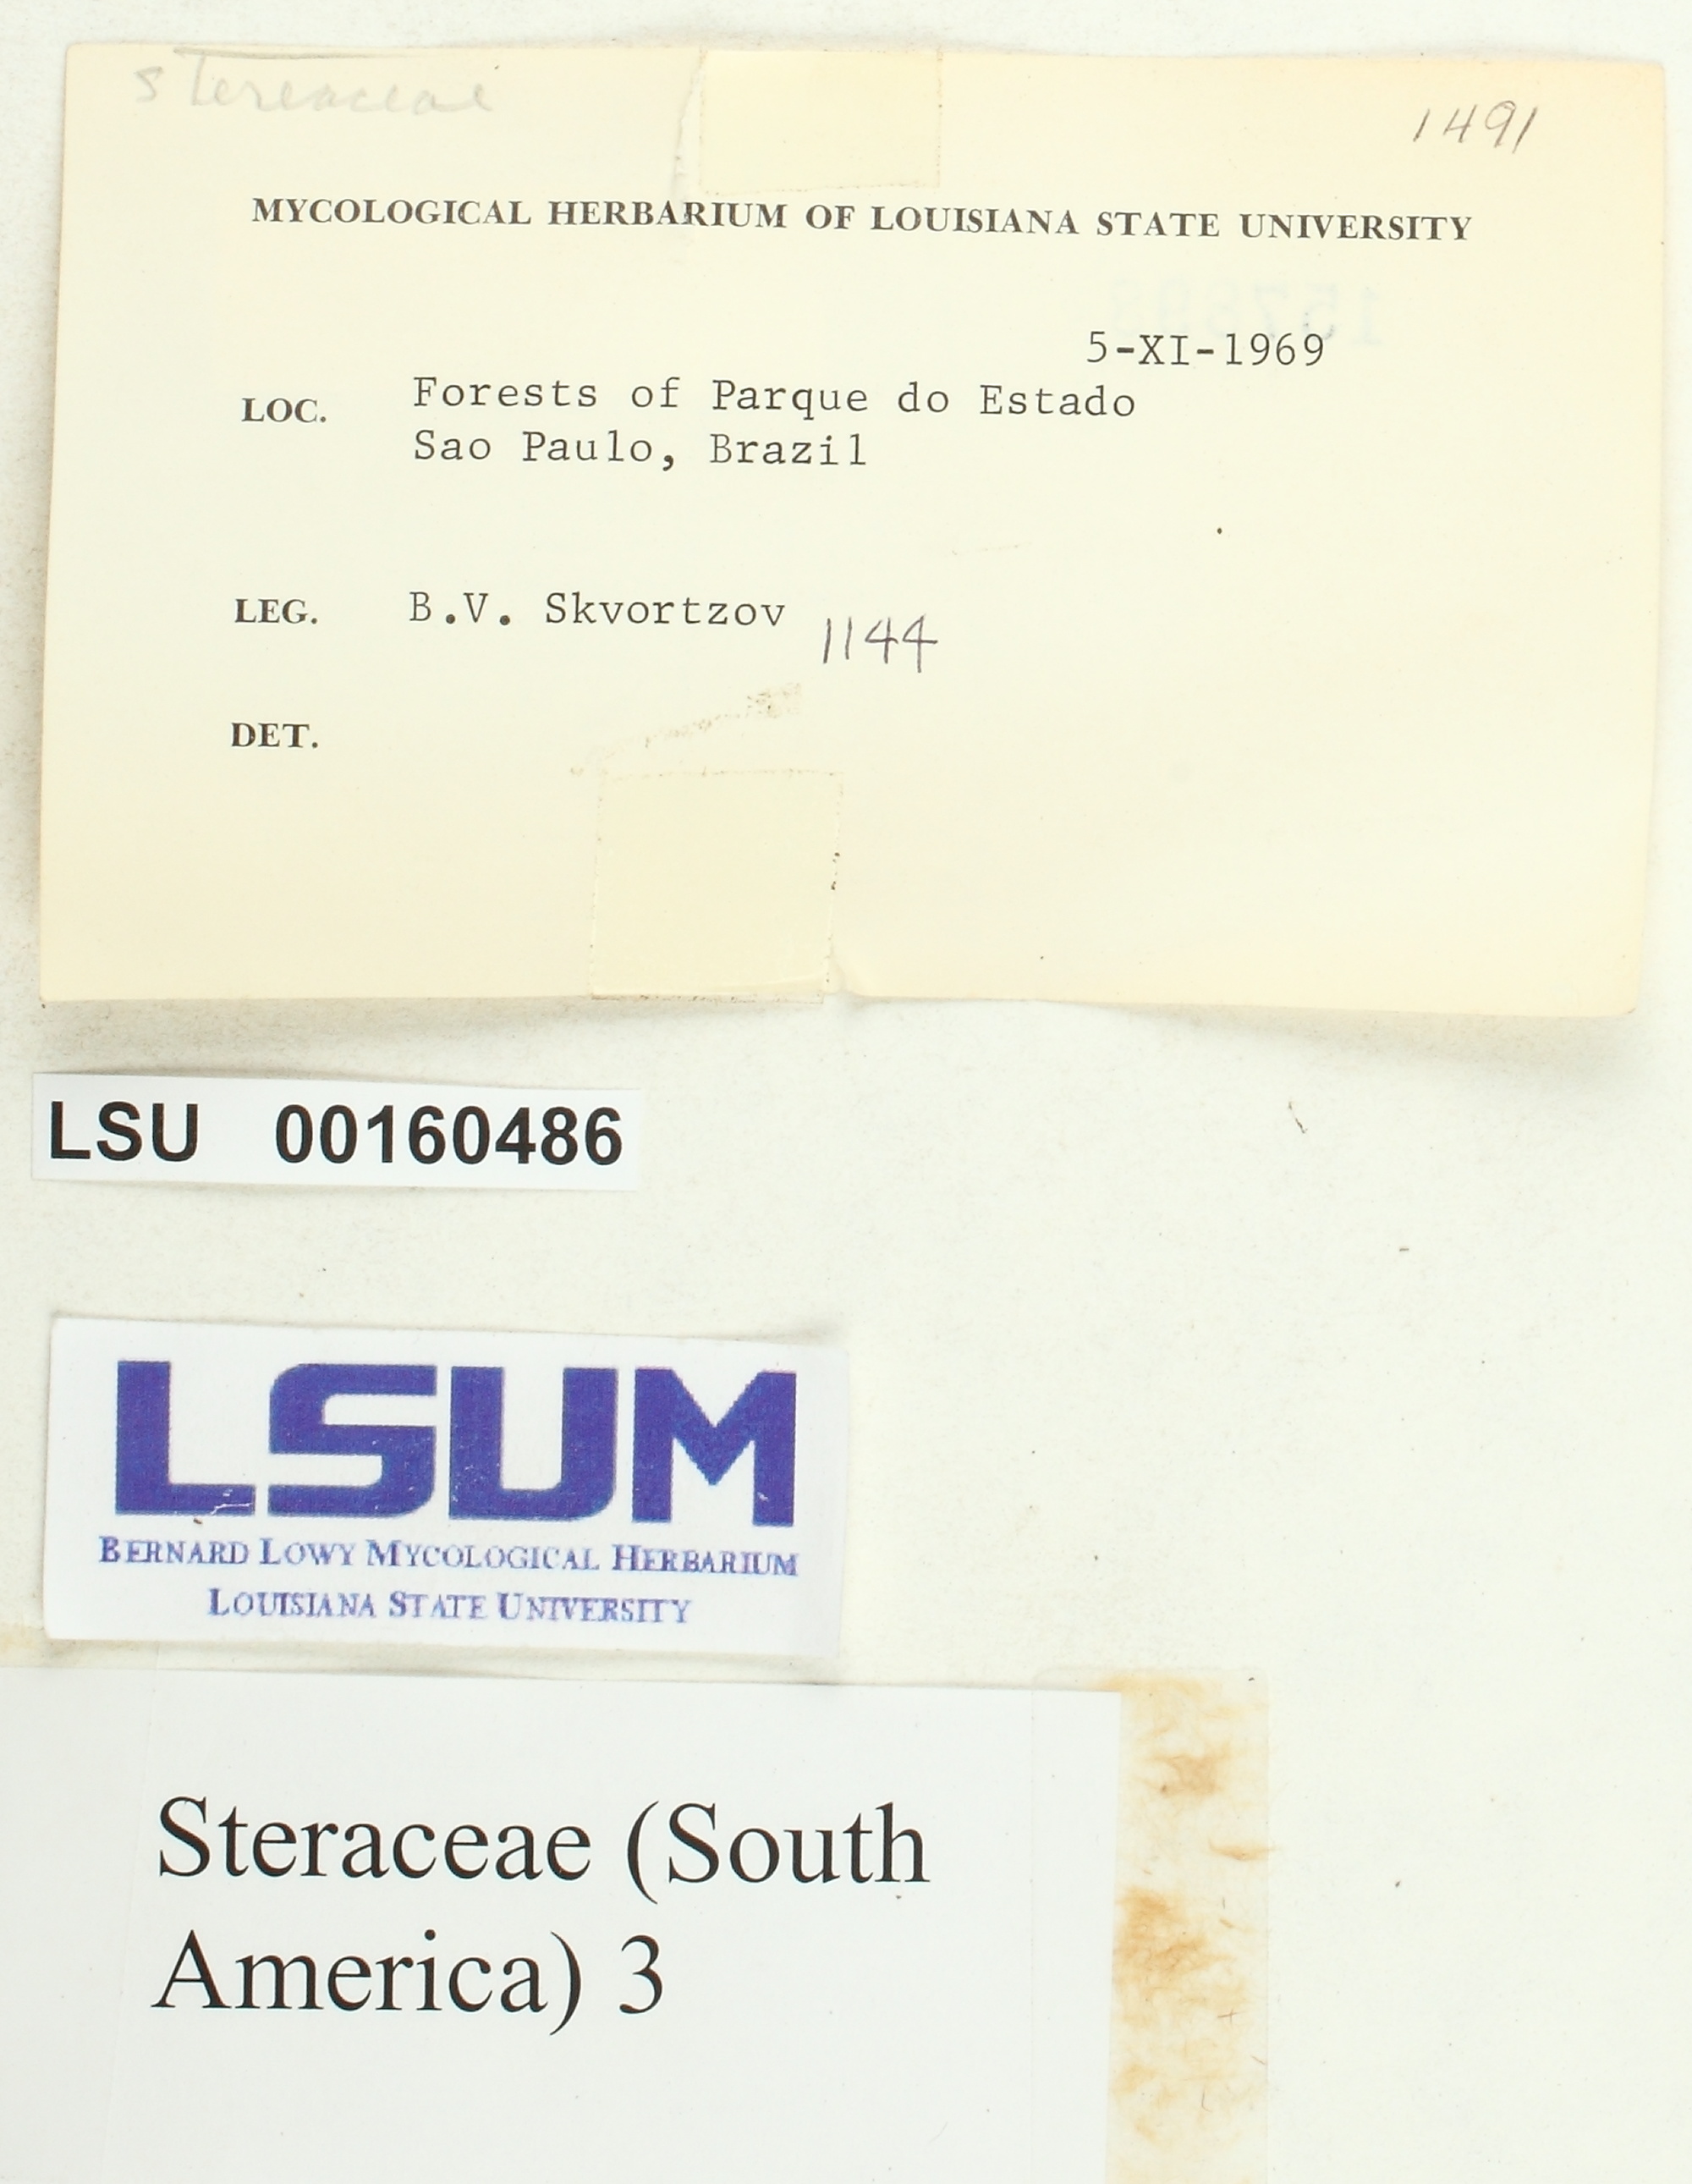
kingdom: Fungi
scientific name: Fungi
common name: Fungi
